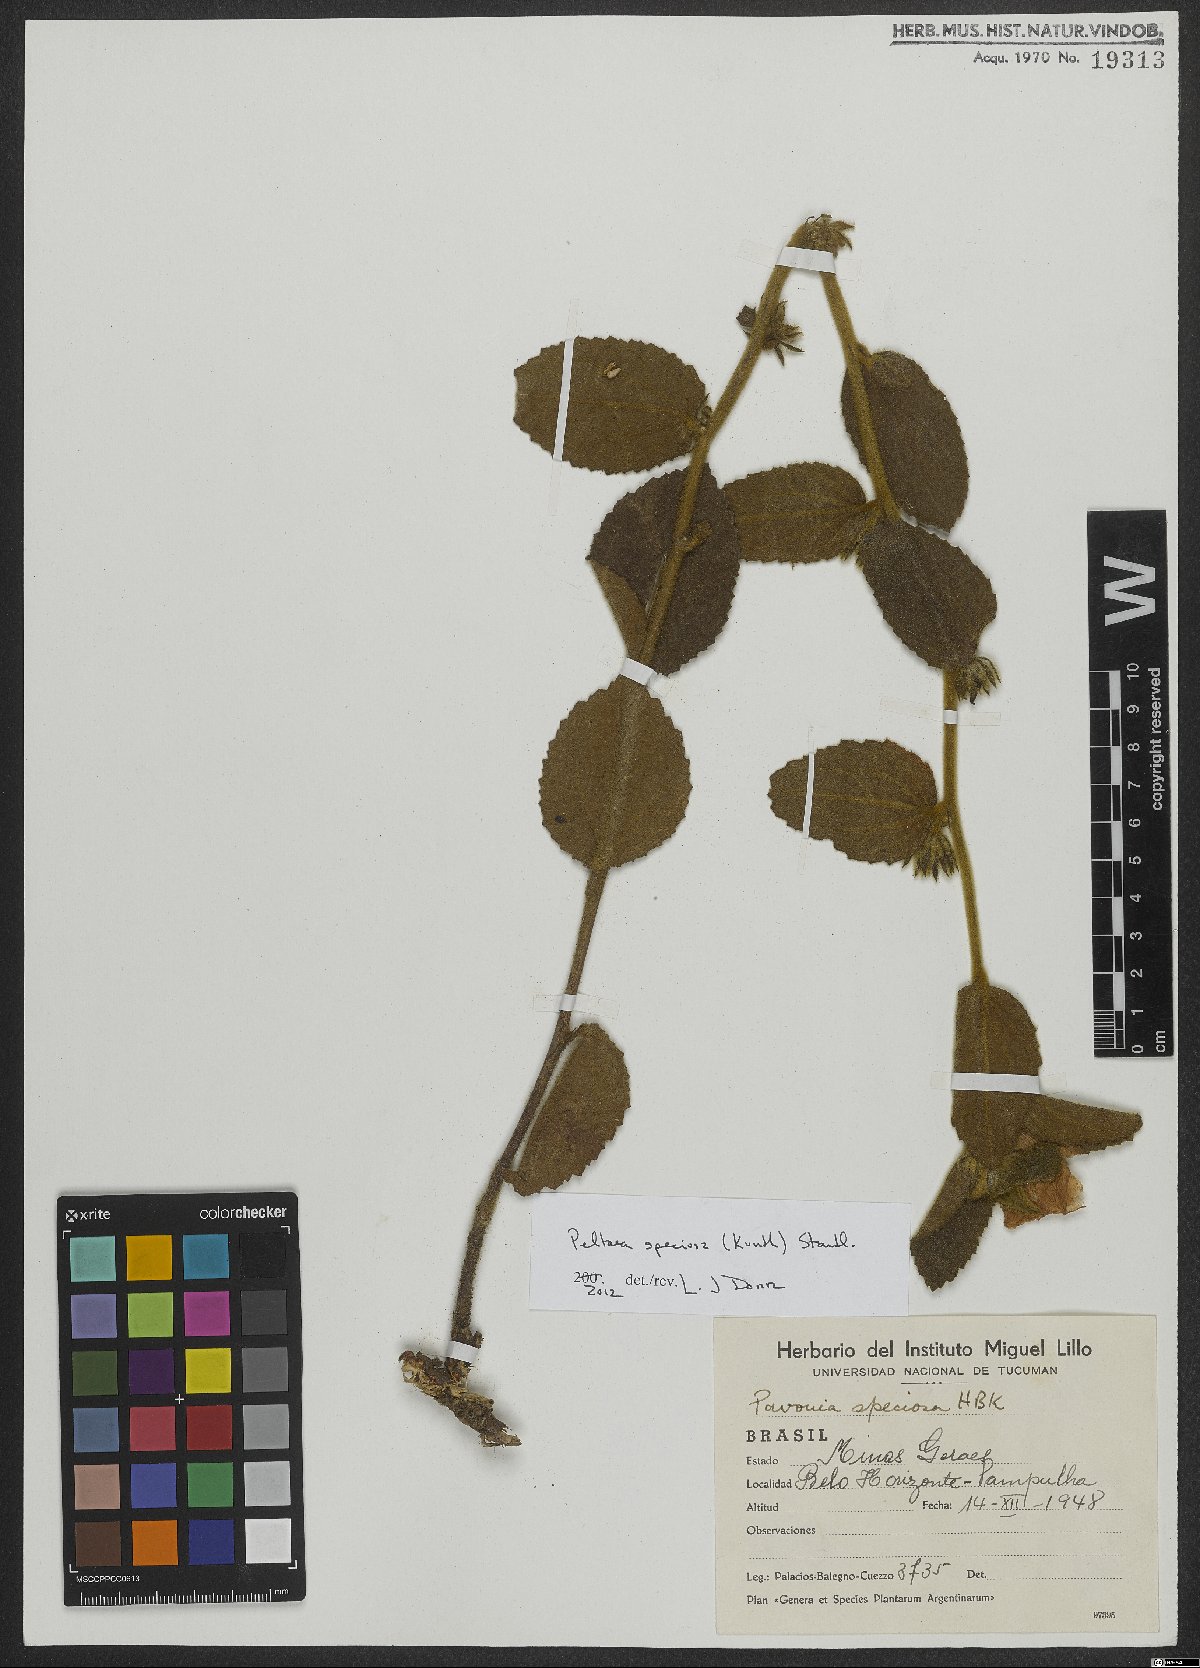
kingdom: Plantae
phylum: Tracheophyta
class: Magnoliopsida
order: Malvales
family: Malvaceae
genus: Peltaea
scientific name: Peltaea speciosa
